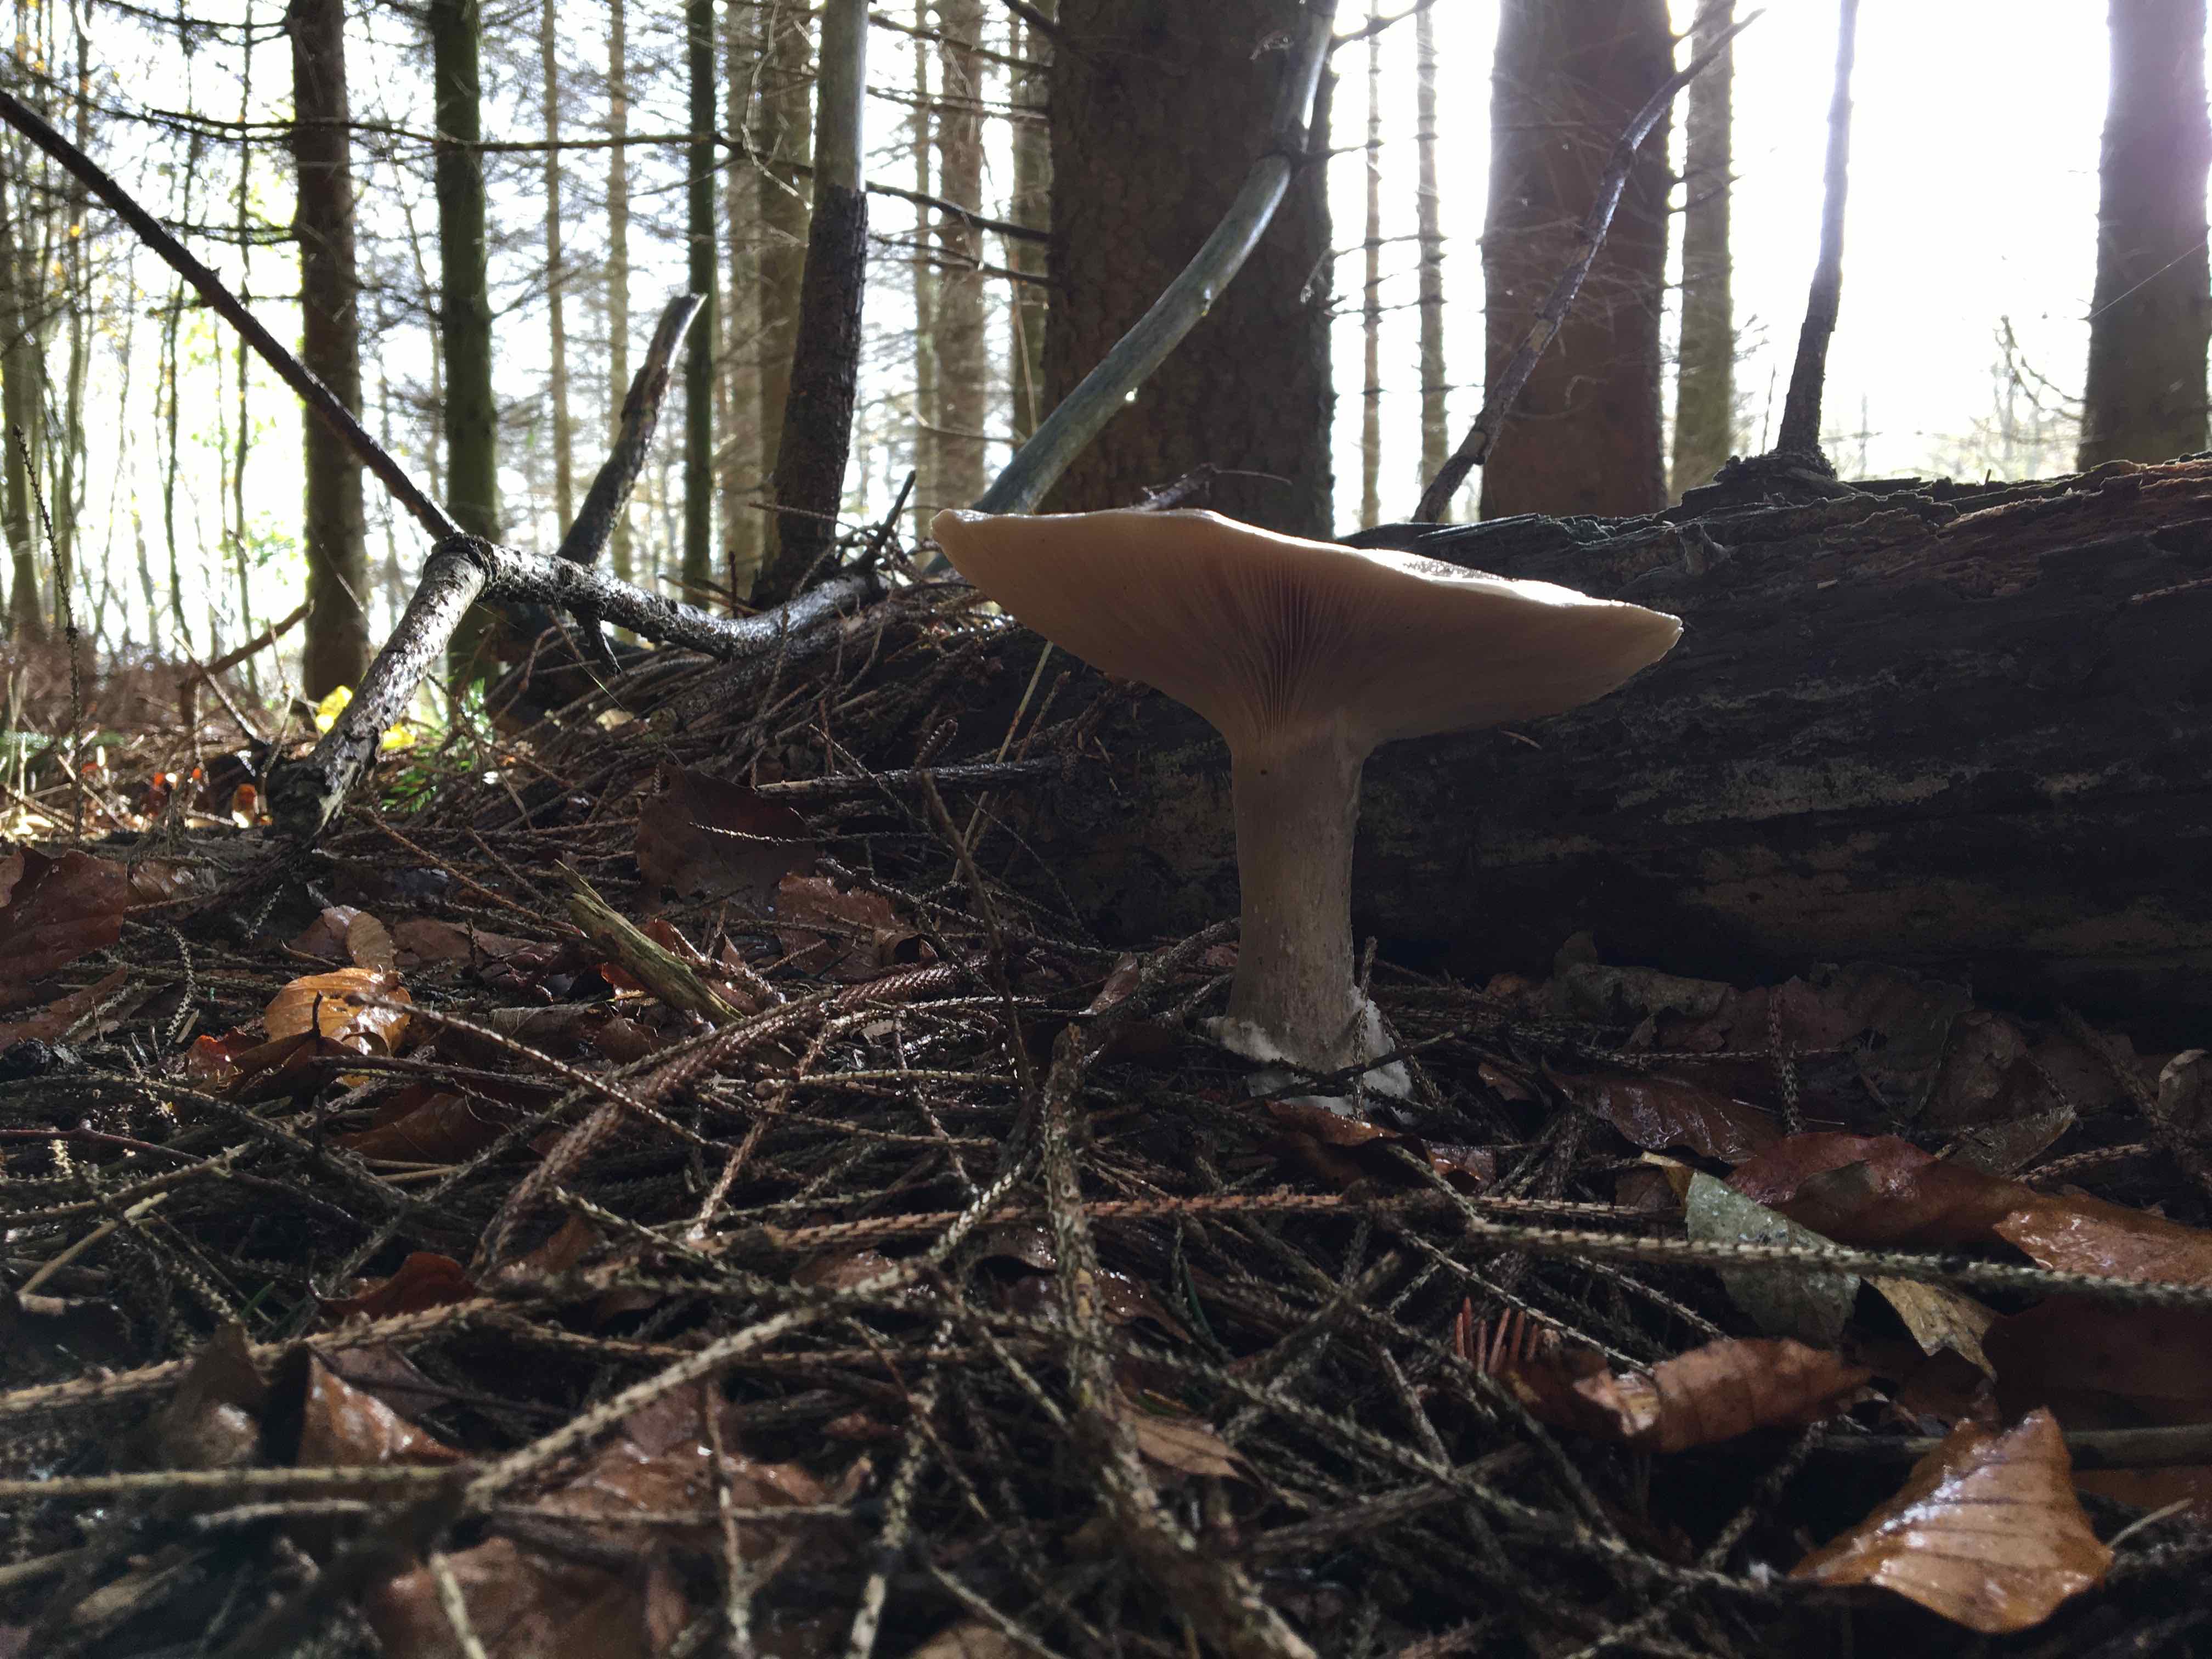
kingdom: Fungi
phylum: Basidiomycota
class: Agaricomycetes
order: Agaricales
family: Tricholomataceae
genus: Clitocybe
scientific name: Clitocybe nebularis
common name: tåge-tragthat
